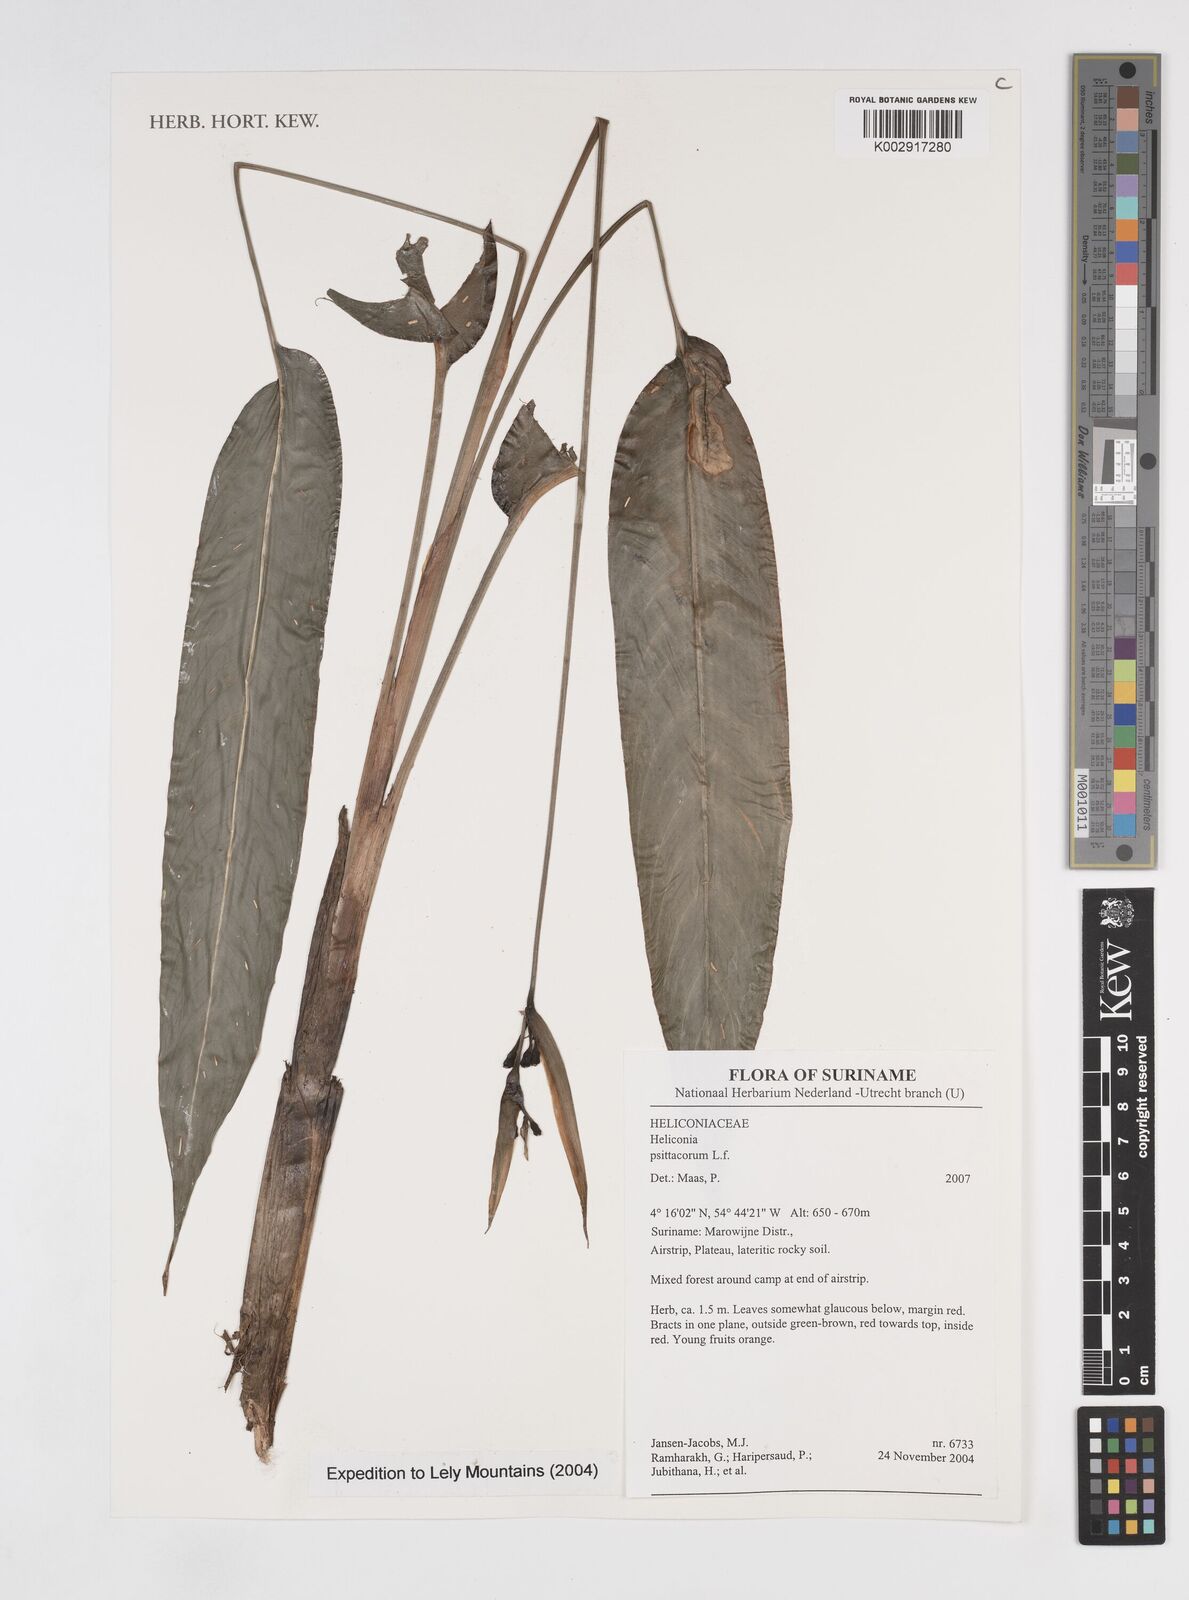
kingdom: Plantae
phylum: Tracheophyta
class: Liliopsida
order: Zingiberales
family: Heliconiaceae
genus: Heliconia
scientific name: Heliconia psittacorum
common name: Parrot's-flower
